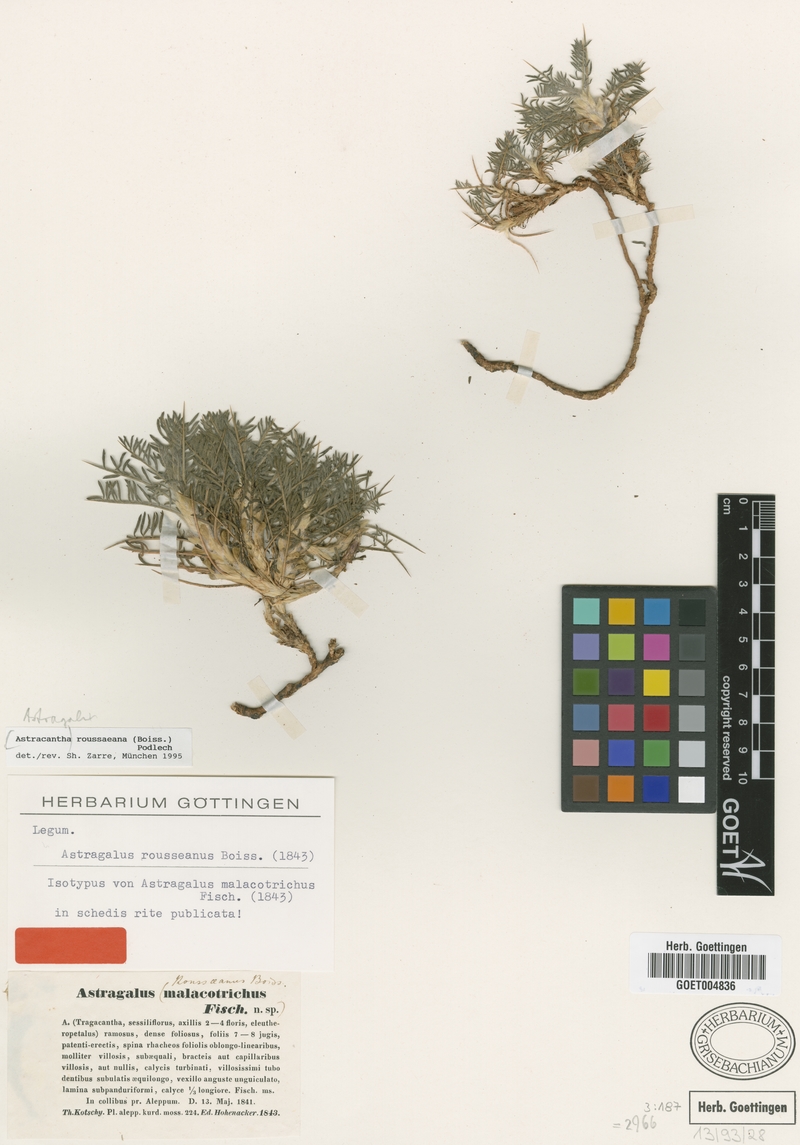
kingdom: Plantae
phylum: Tracheophyta
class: Magnoliopsida
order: Fabales
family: Fabaceae
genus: Astragalus
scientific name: Astragalus rousseanus
